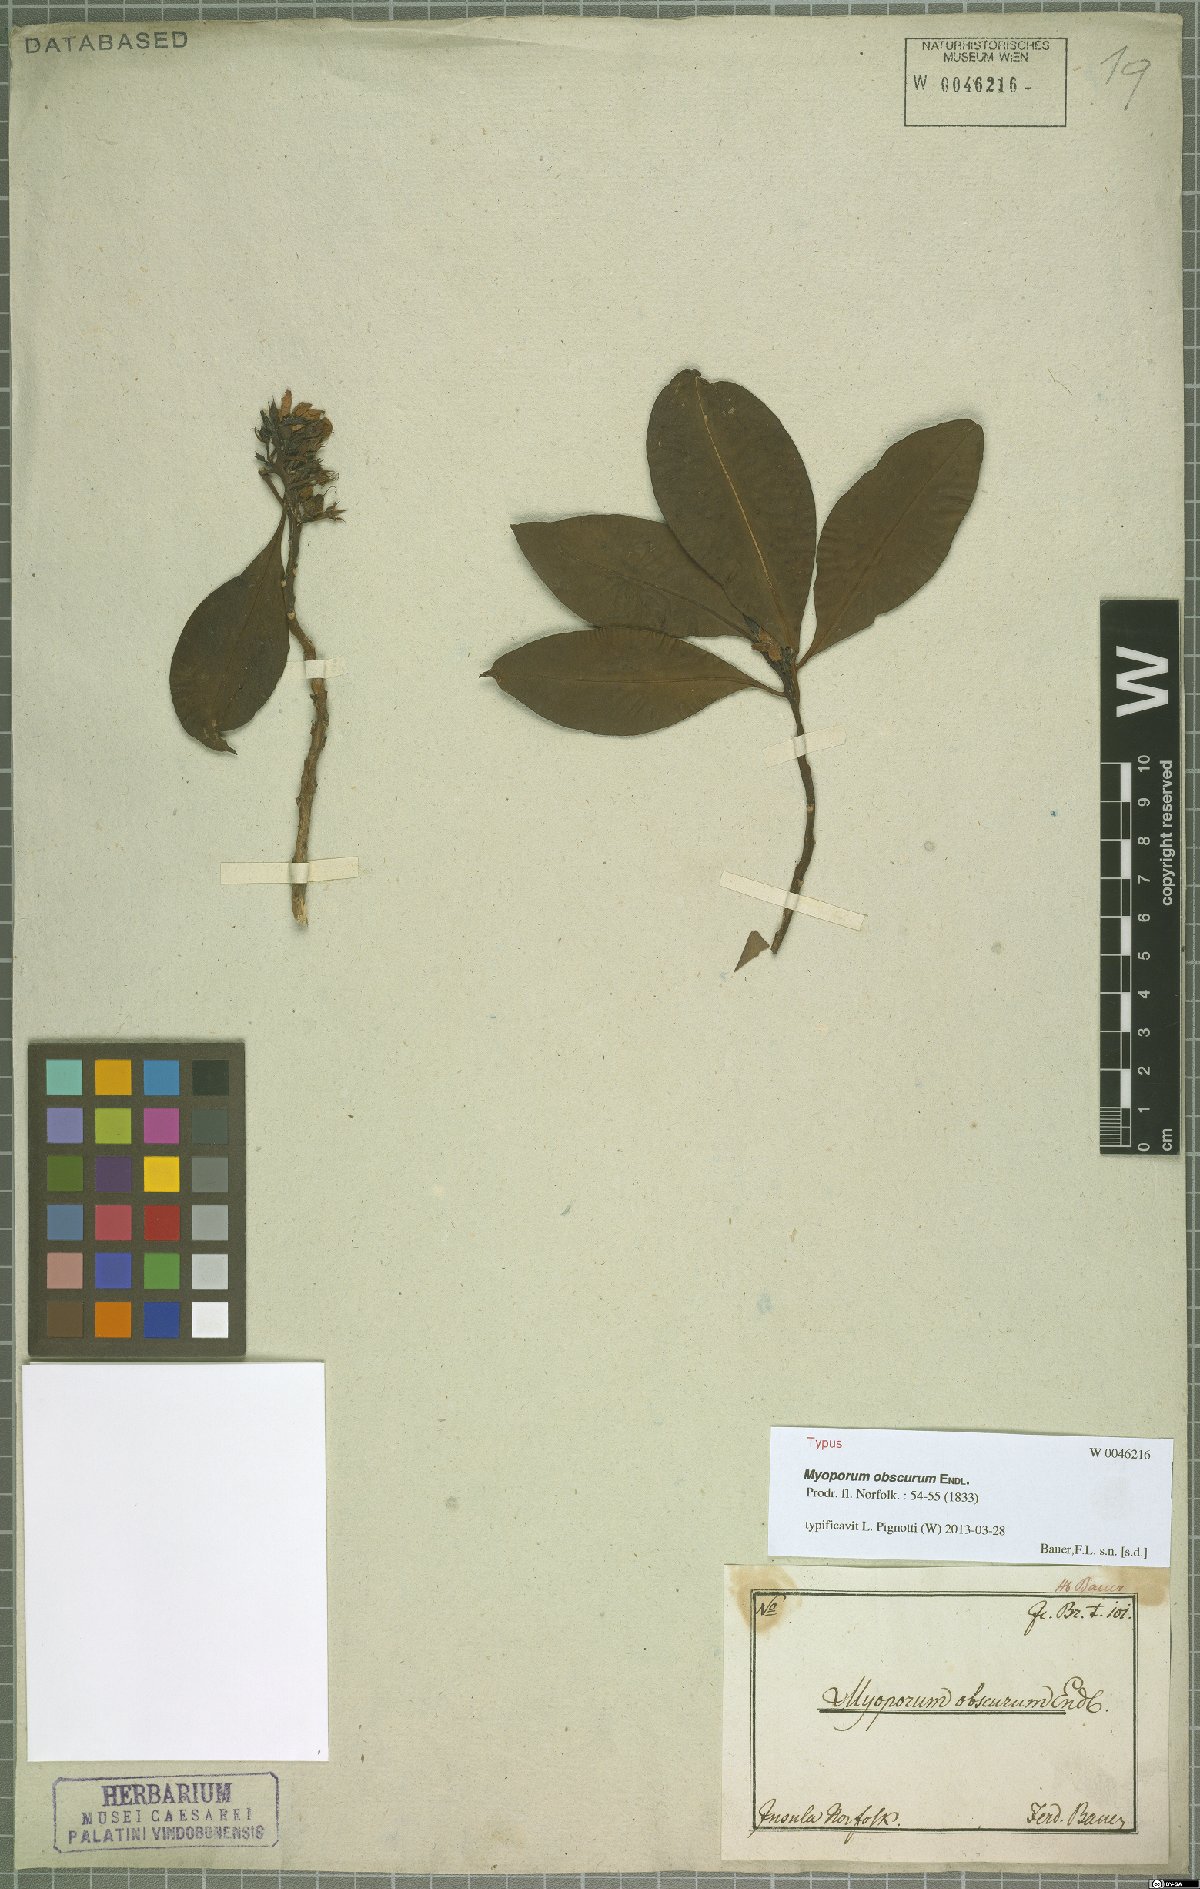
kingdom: Plantae
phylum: Tracheophyta
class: Magnoliopsida
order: Lamiales
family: Scrophulariaceae
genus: Myoporum
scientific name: Myoporum obscurum
